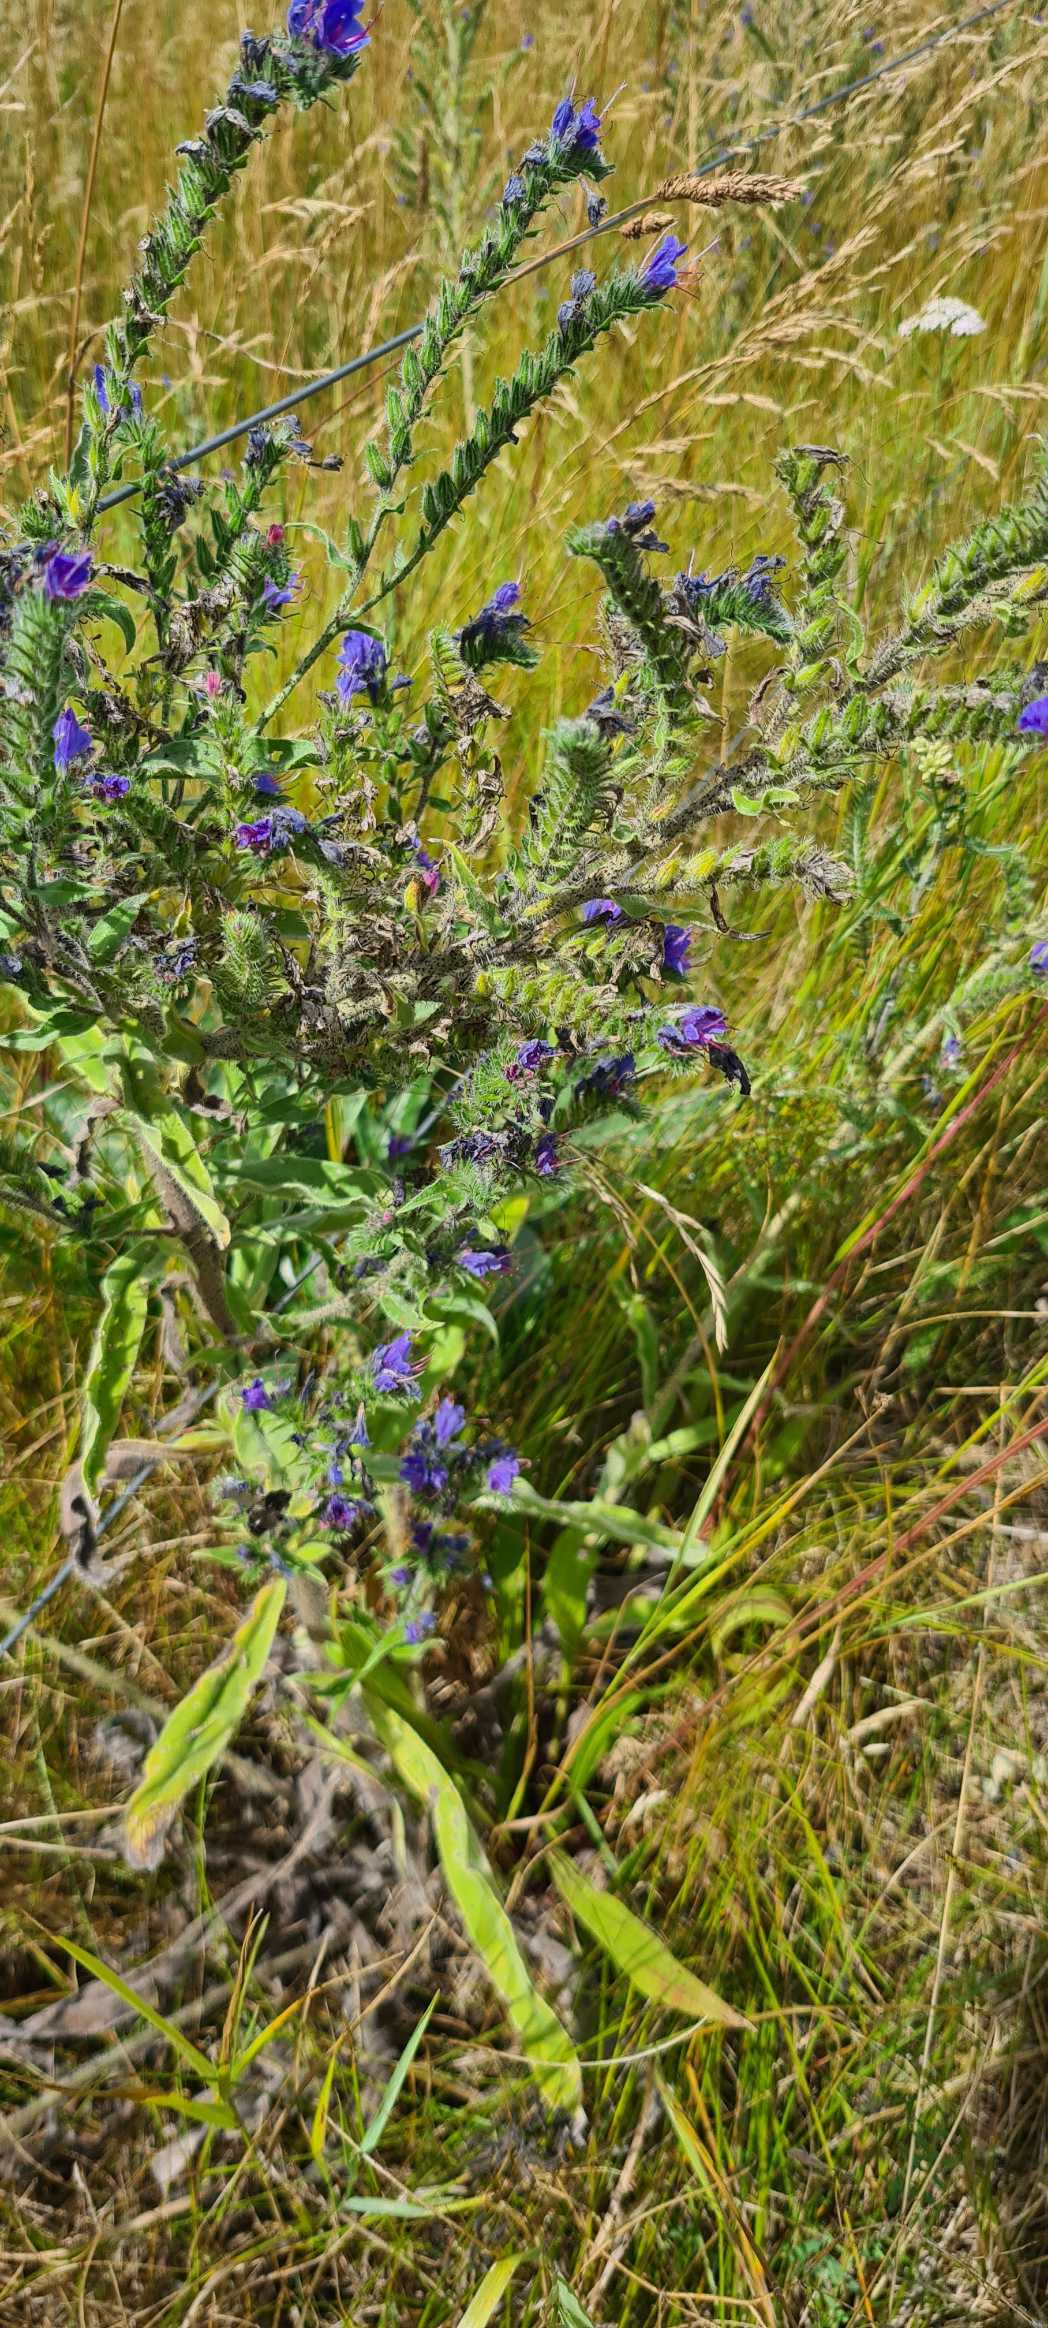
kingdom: Plantae
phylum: Tracheophyta
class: Magnoliopsida
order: Boraginales
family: Boraginaceae
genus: Echium
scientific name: Echium vulgare
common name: Slangehoved
